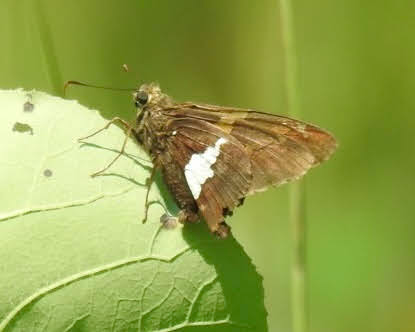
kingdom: Animalia
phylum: Arthropoda
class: Insecta
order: Lepidoptera
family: Hesperiidae
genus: Epargyreus
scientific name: Epargyreus clarus
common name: Silver-spotted Skipper
